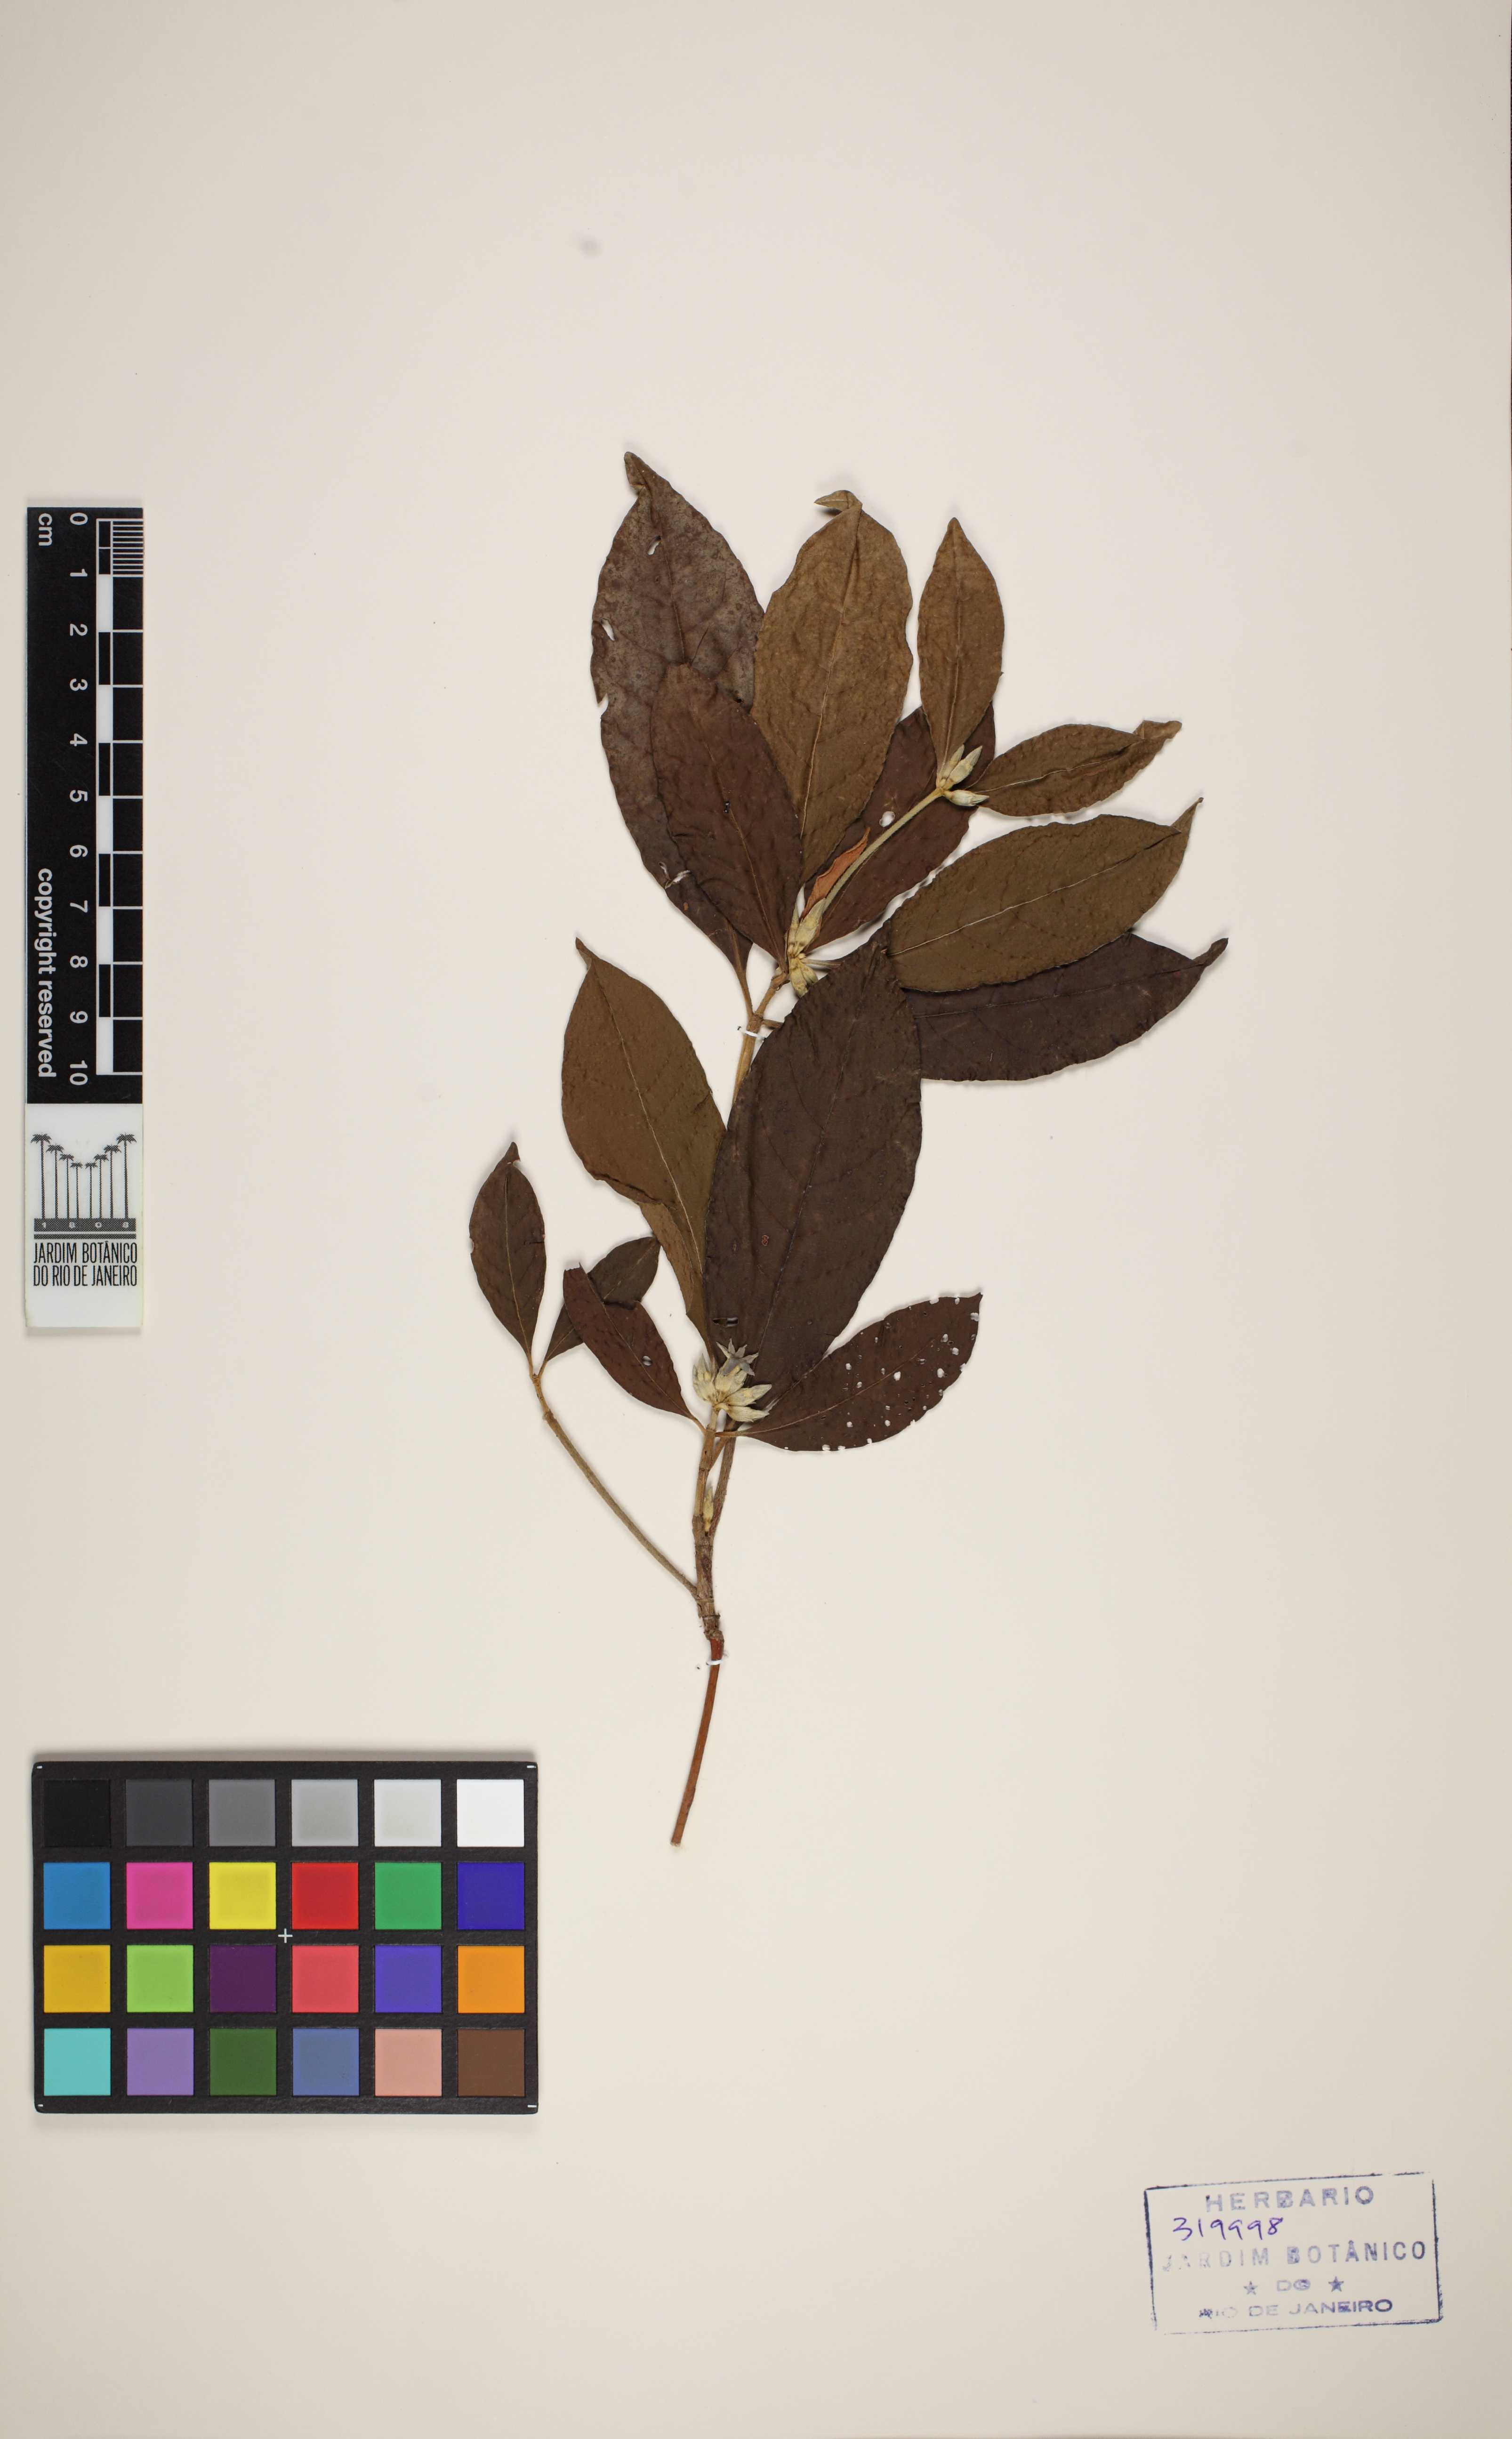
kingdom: Plantae
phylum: Tracheophyta
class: Magnoliopsida
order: Gentianales
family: Rubiaceae
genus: Amaioua
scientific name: Amaioua guianensis
